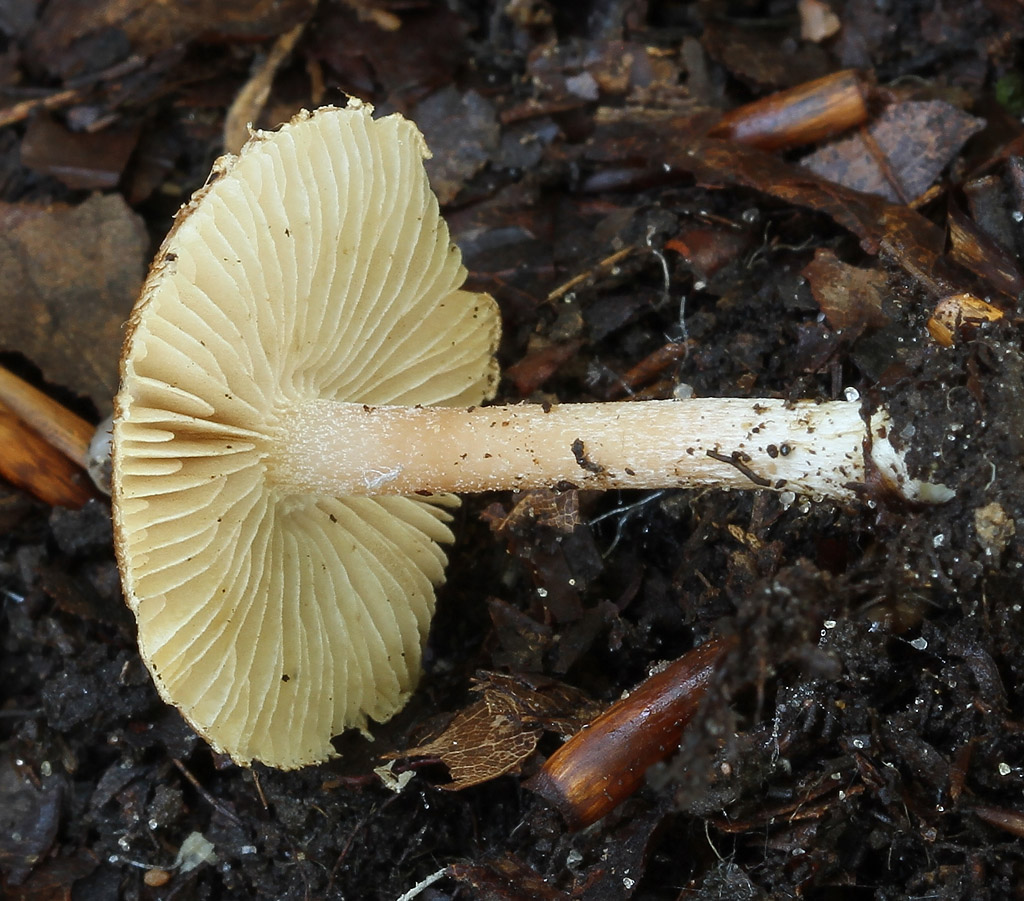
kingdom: Fungi
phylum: Basidiomycota
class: Agaricomycetes
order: Agaricales
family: Inocybaceae
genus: Inocybe
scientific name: Inocybe
